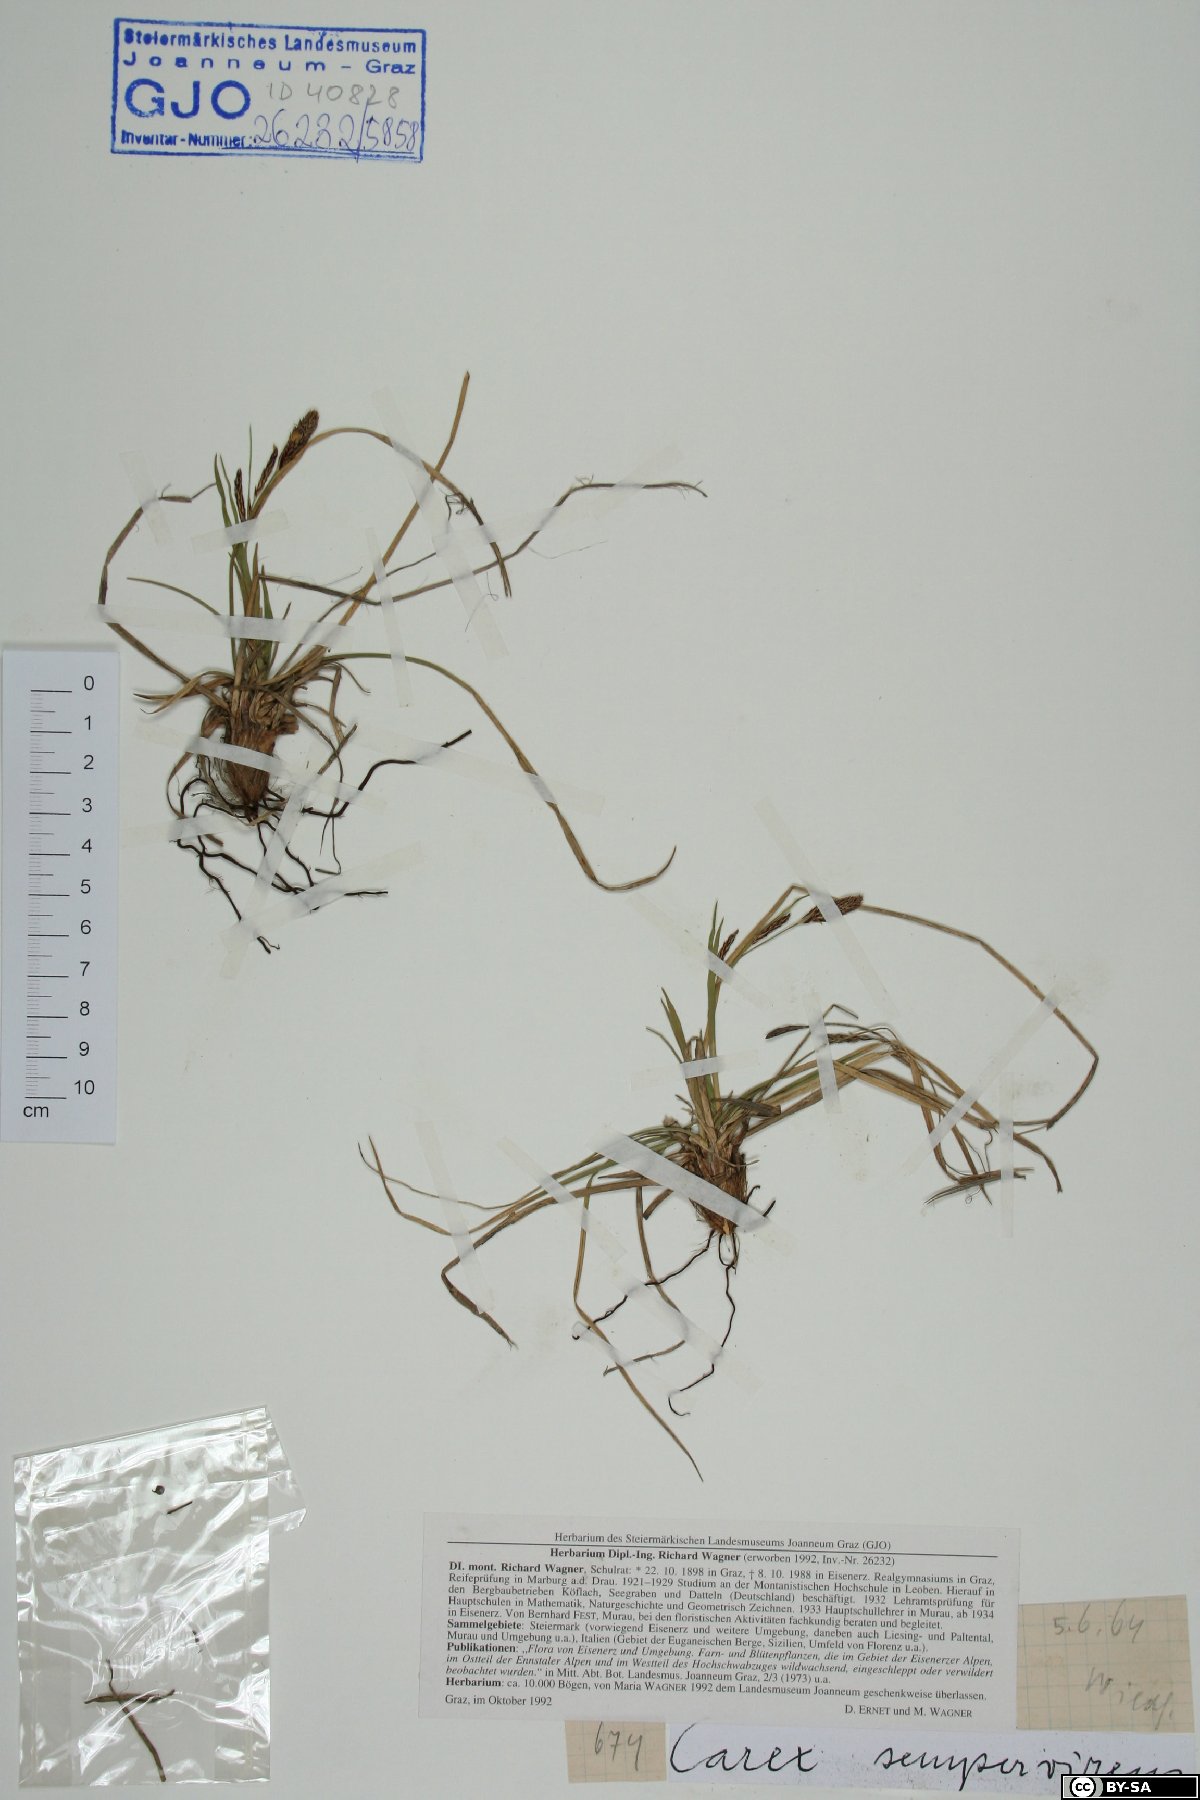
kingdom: Plantae
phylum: Tracheophyta
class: Liliopsida
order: Poales
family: Cyperaceae
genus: Carex
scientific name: Carex sempervirens
